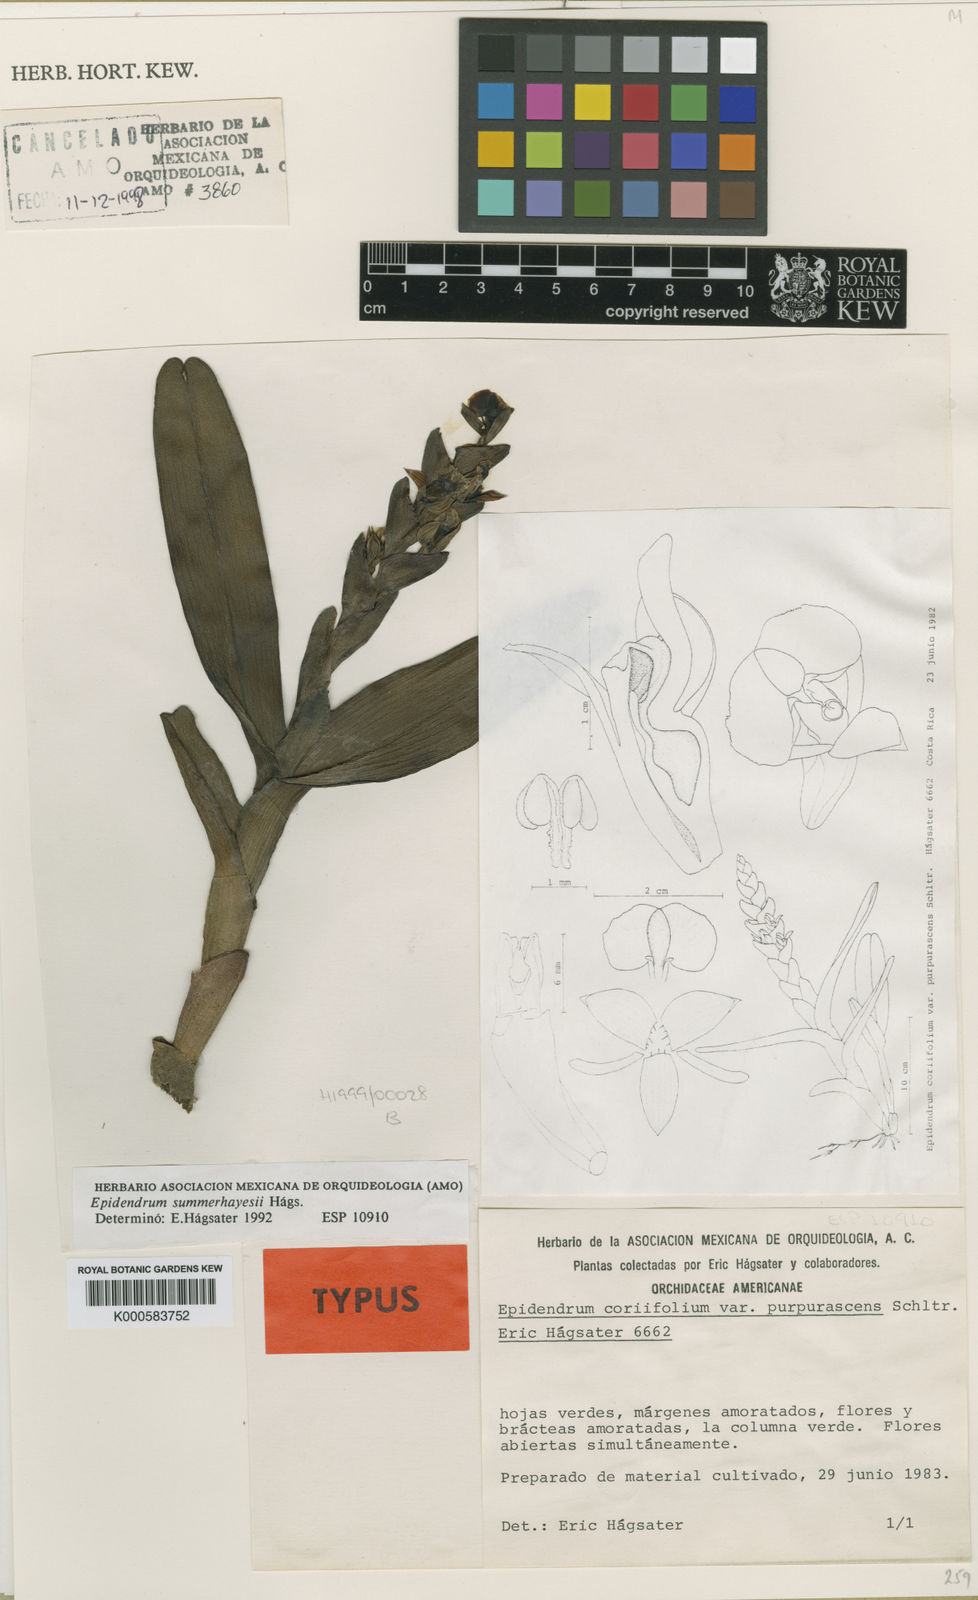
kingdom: Plantae
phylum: Tracheophyta
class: Liliopsida
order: Asparagales
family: Orchidaceae
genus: Epidendrum
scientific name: Epidendrum
